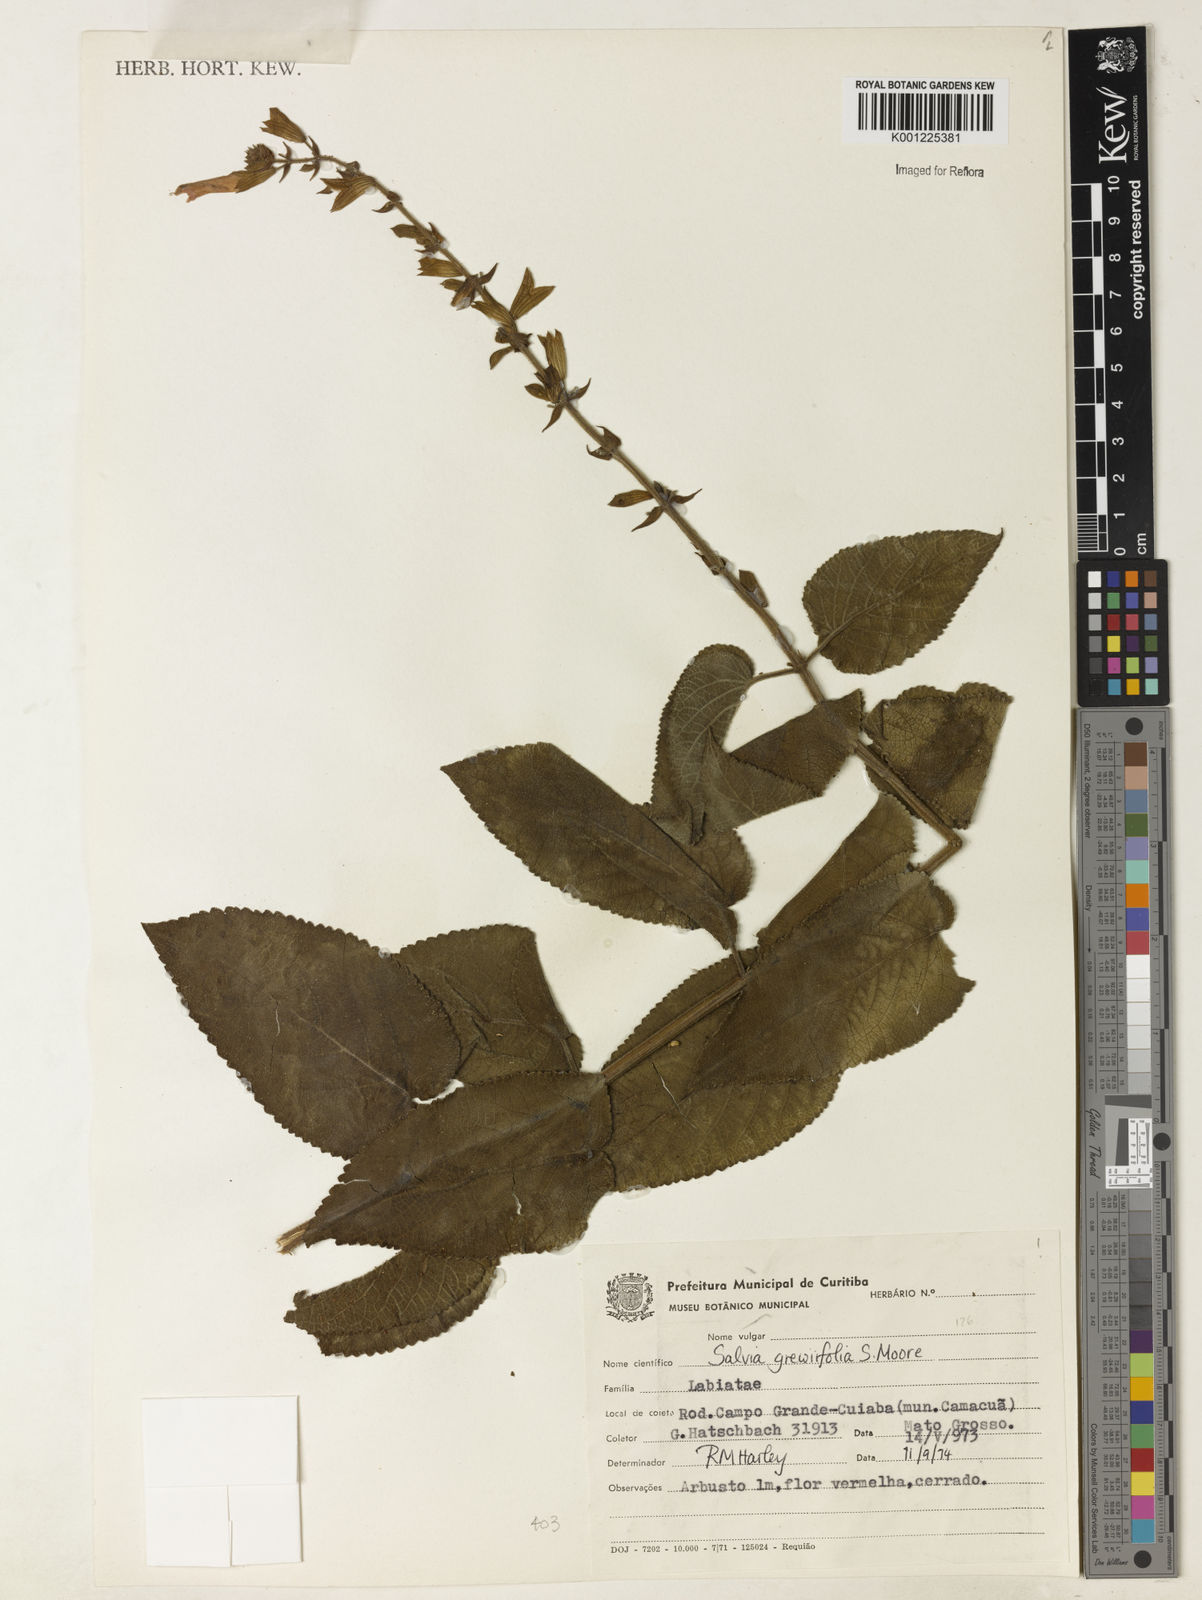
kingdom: Plantae
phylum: Tracheophyta
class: Magnoliopsida
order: Lamiales
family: Lamiaceae
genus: Salvia
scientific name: Salvia grewiifolia
